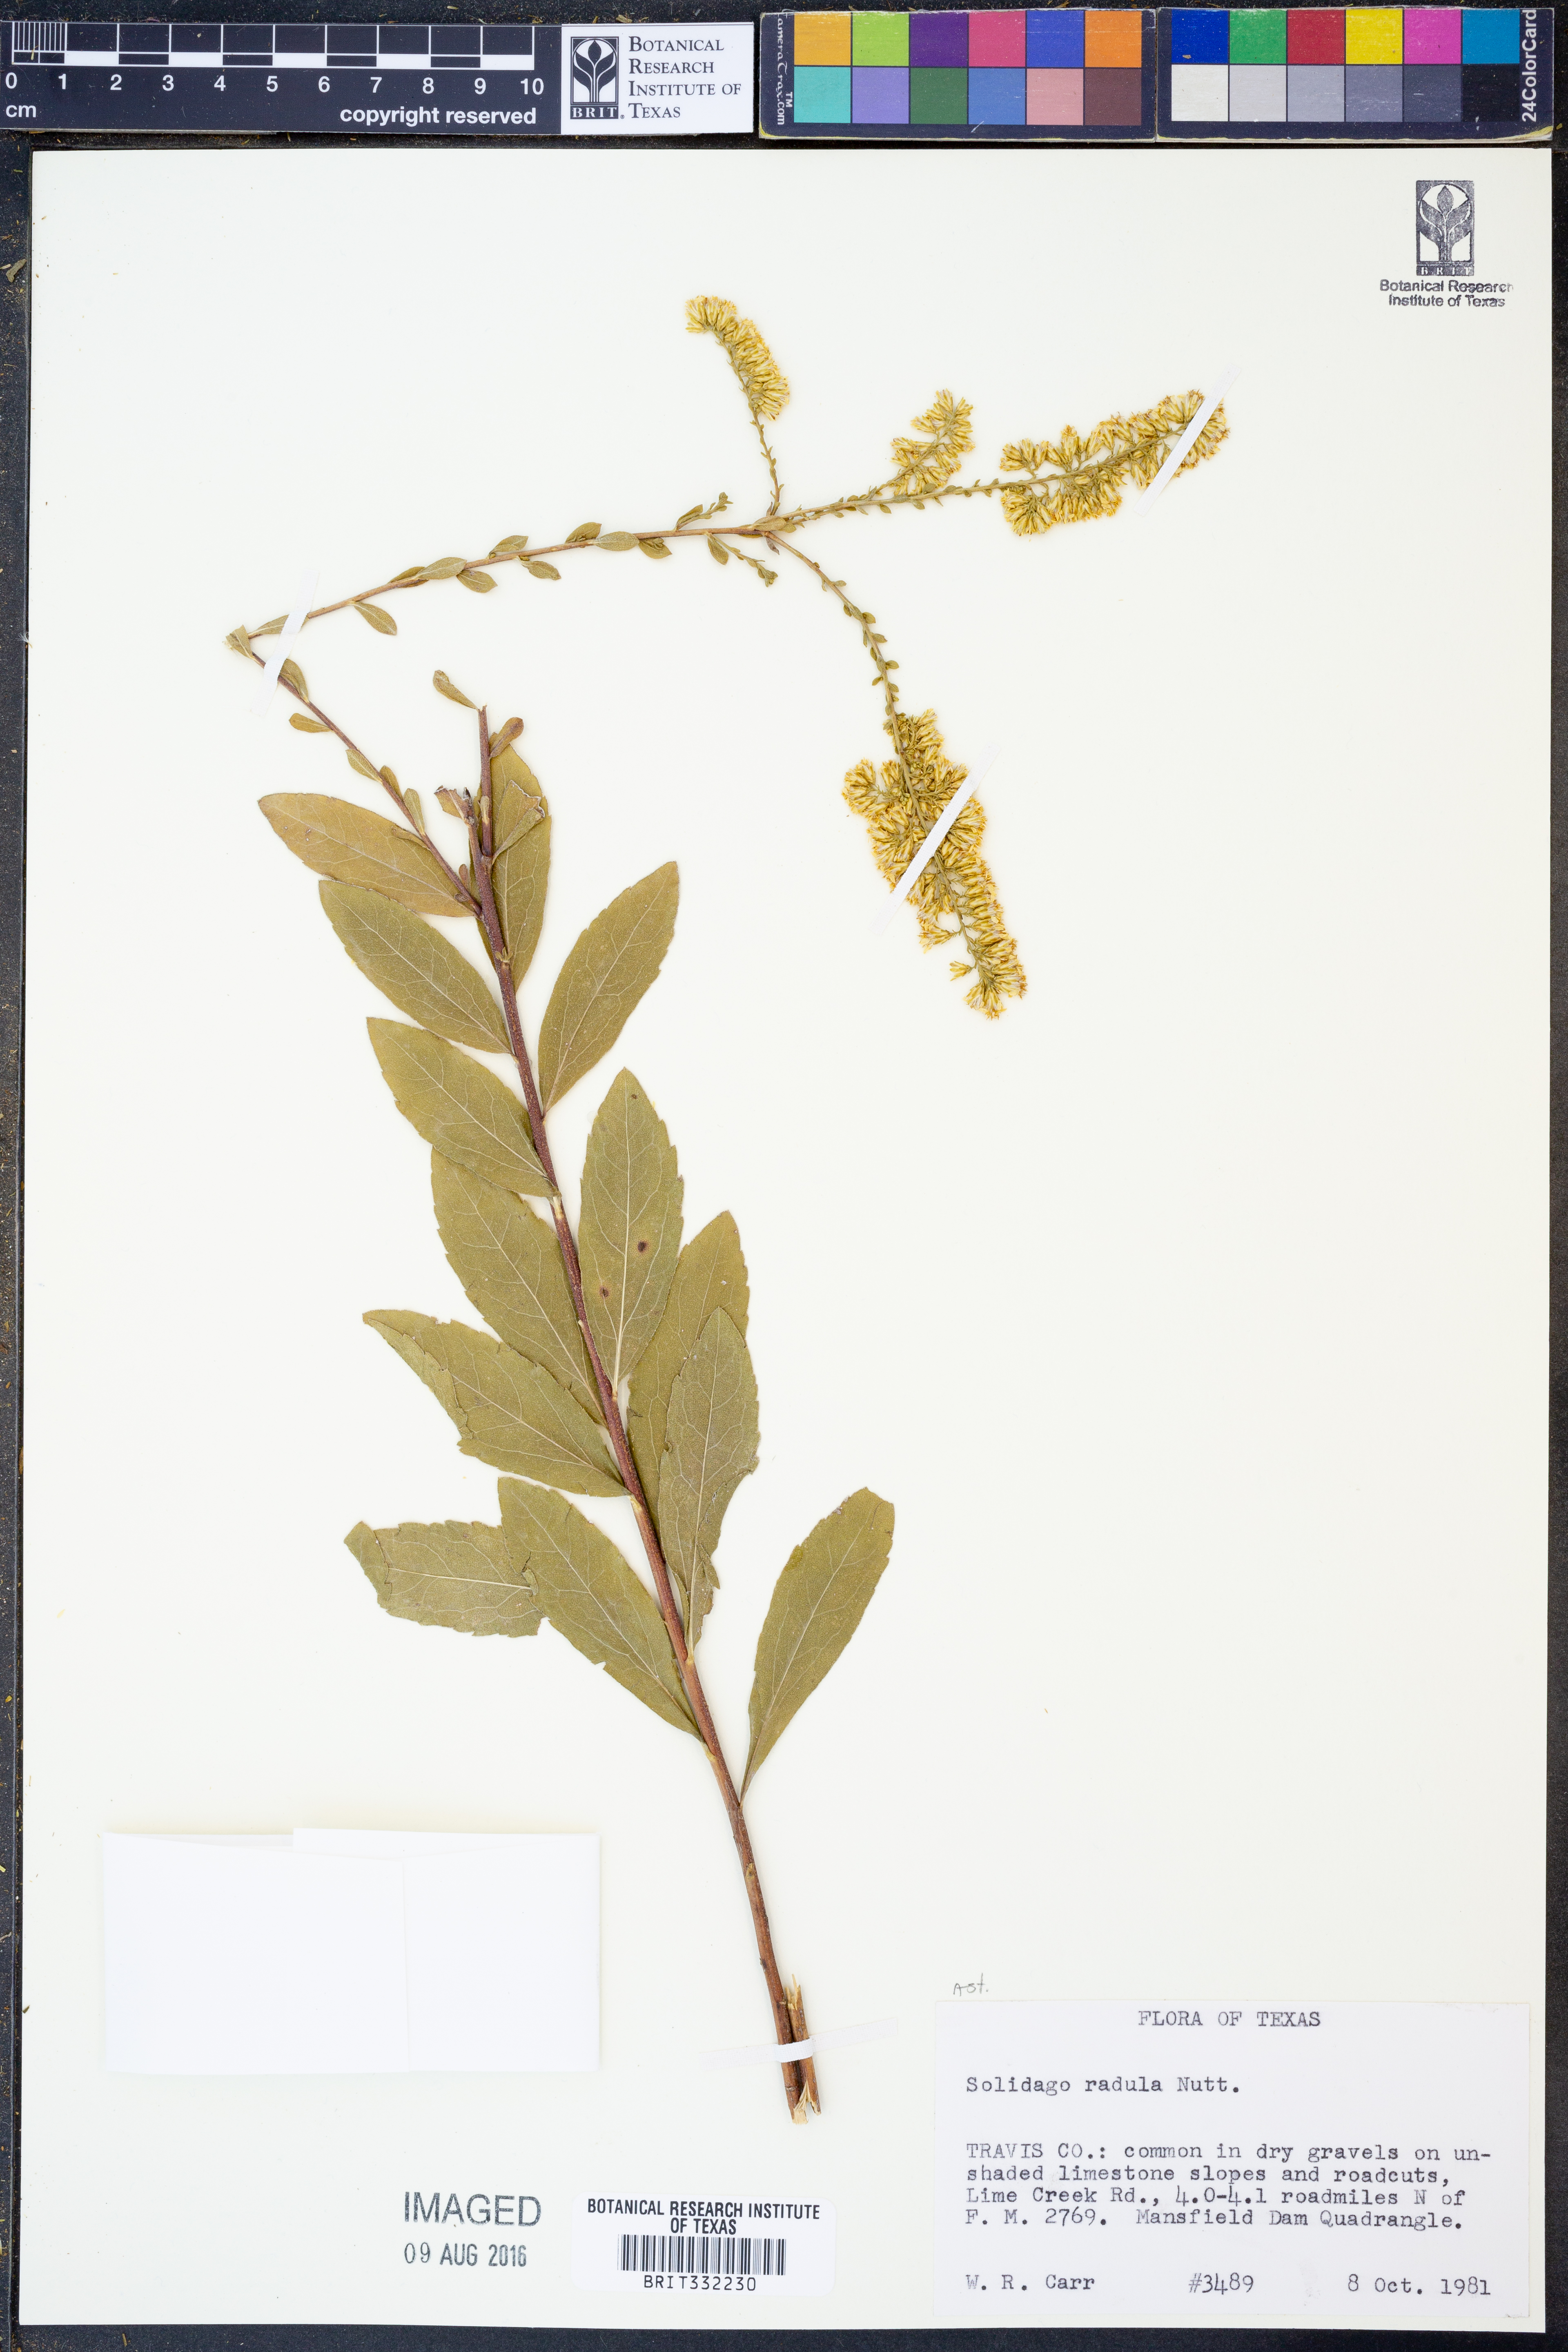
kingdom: Plantae
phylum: Tracheophyta
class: Magnoliopsida
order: Asterales
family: Asteraceae
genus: Solidago
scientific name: Solidago radula
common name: Western rough goldenrod
